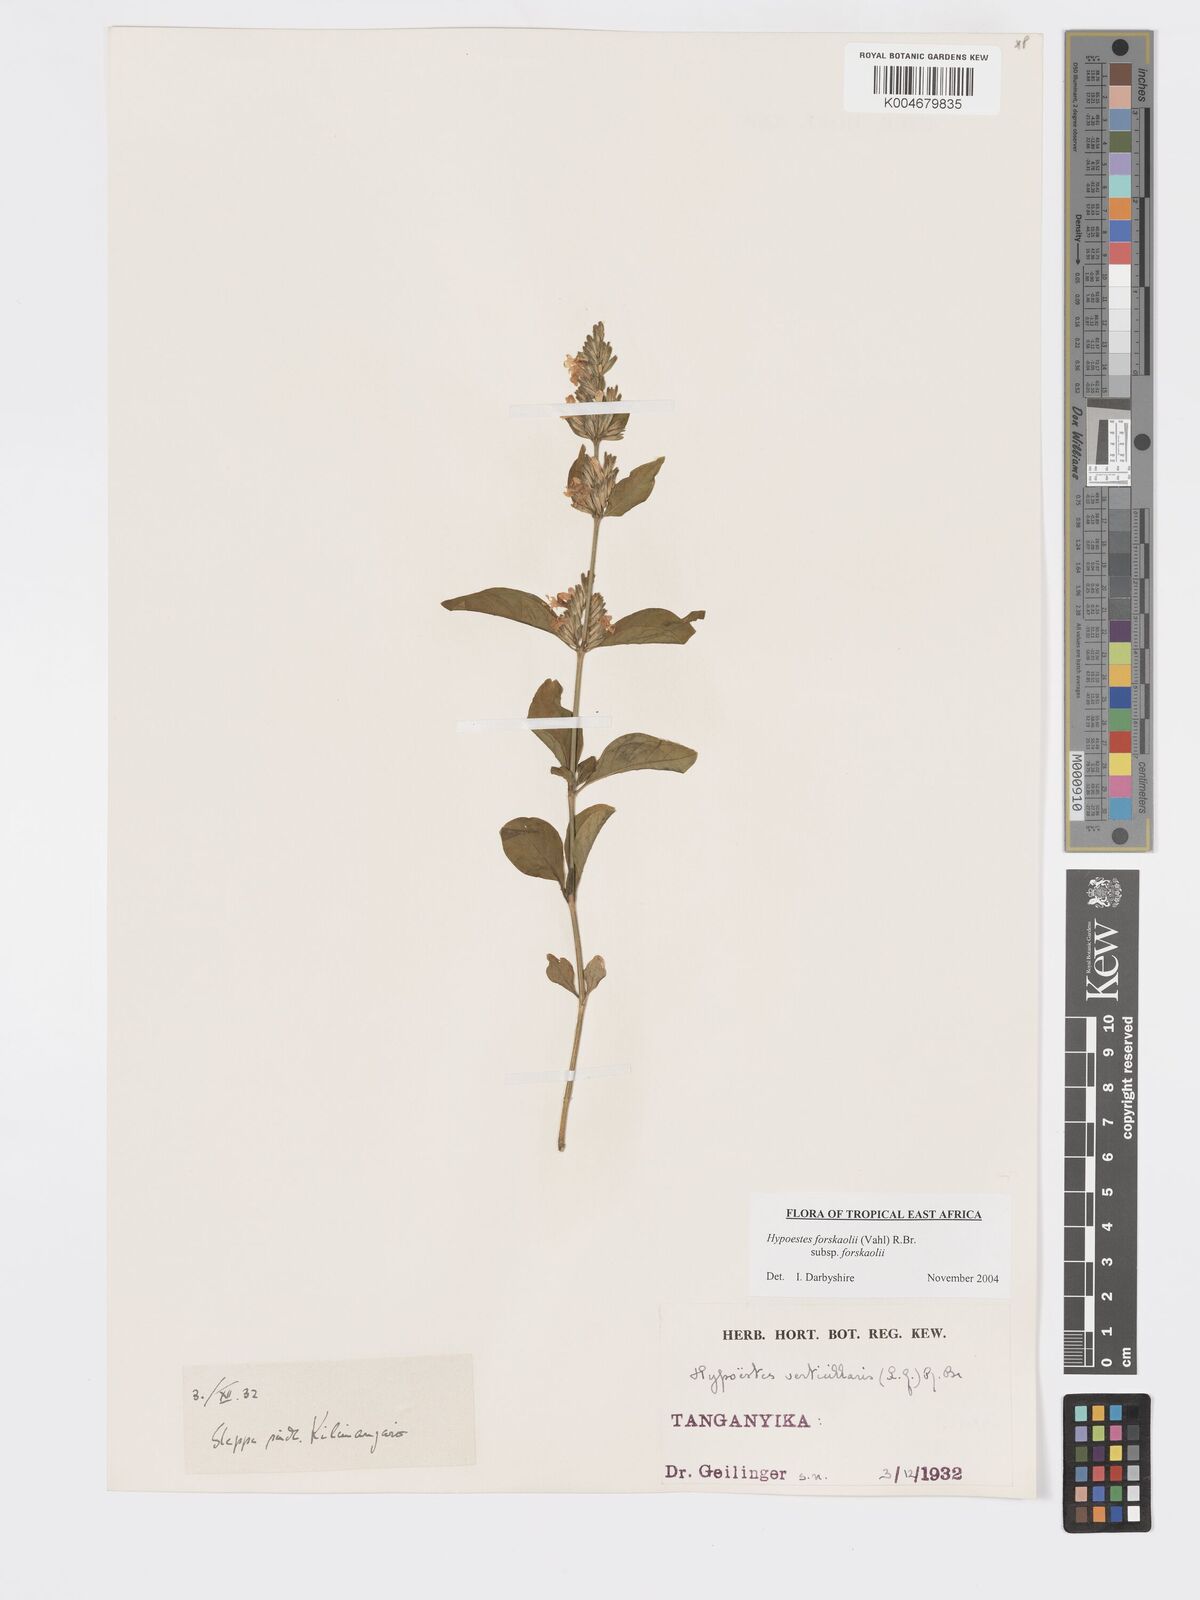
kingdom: Plantae
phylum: Tracheophyta
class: Magnoliopsida
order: Lamiales
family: Acanthaceae
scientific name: Acanthaceae
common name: Acanthaceae
